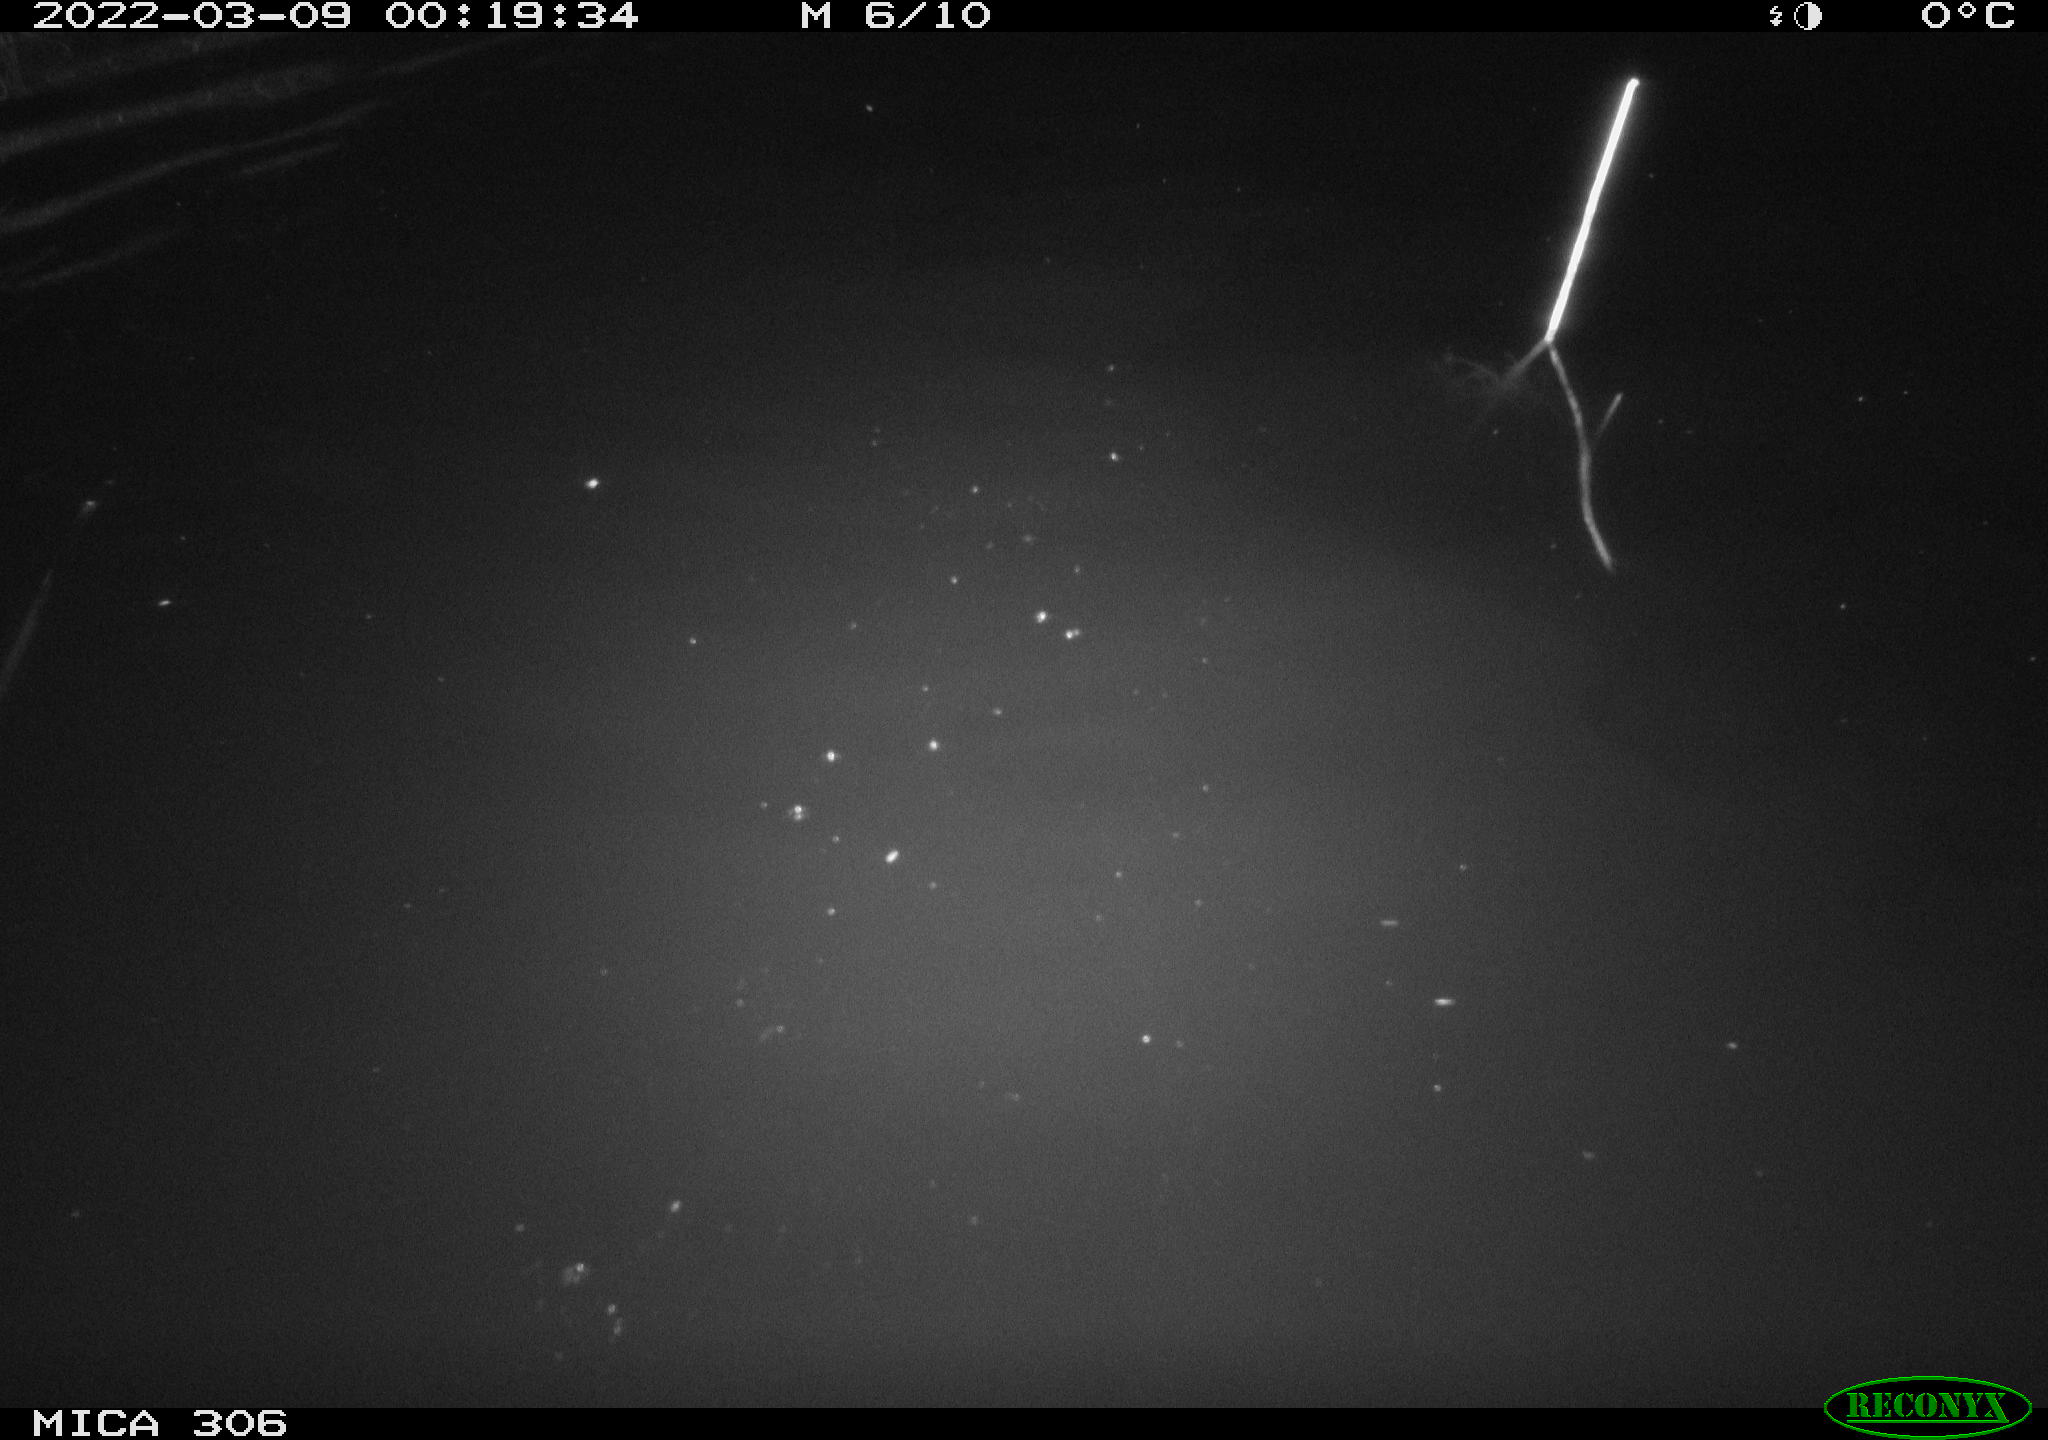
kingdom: Animalia
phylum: Chordata
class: Mammalia
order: Rodentia
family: Cricetidae
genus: Ondatra
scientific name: Ondatra zibethicus
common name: Muskrat
